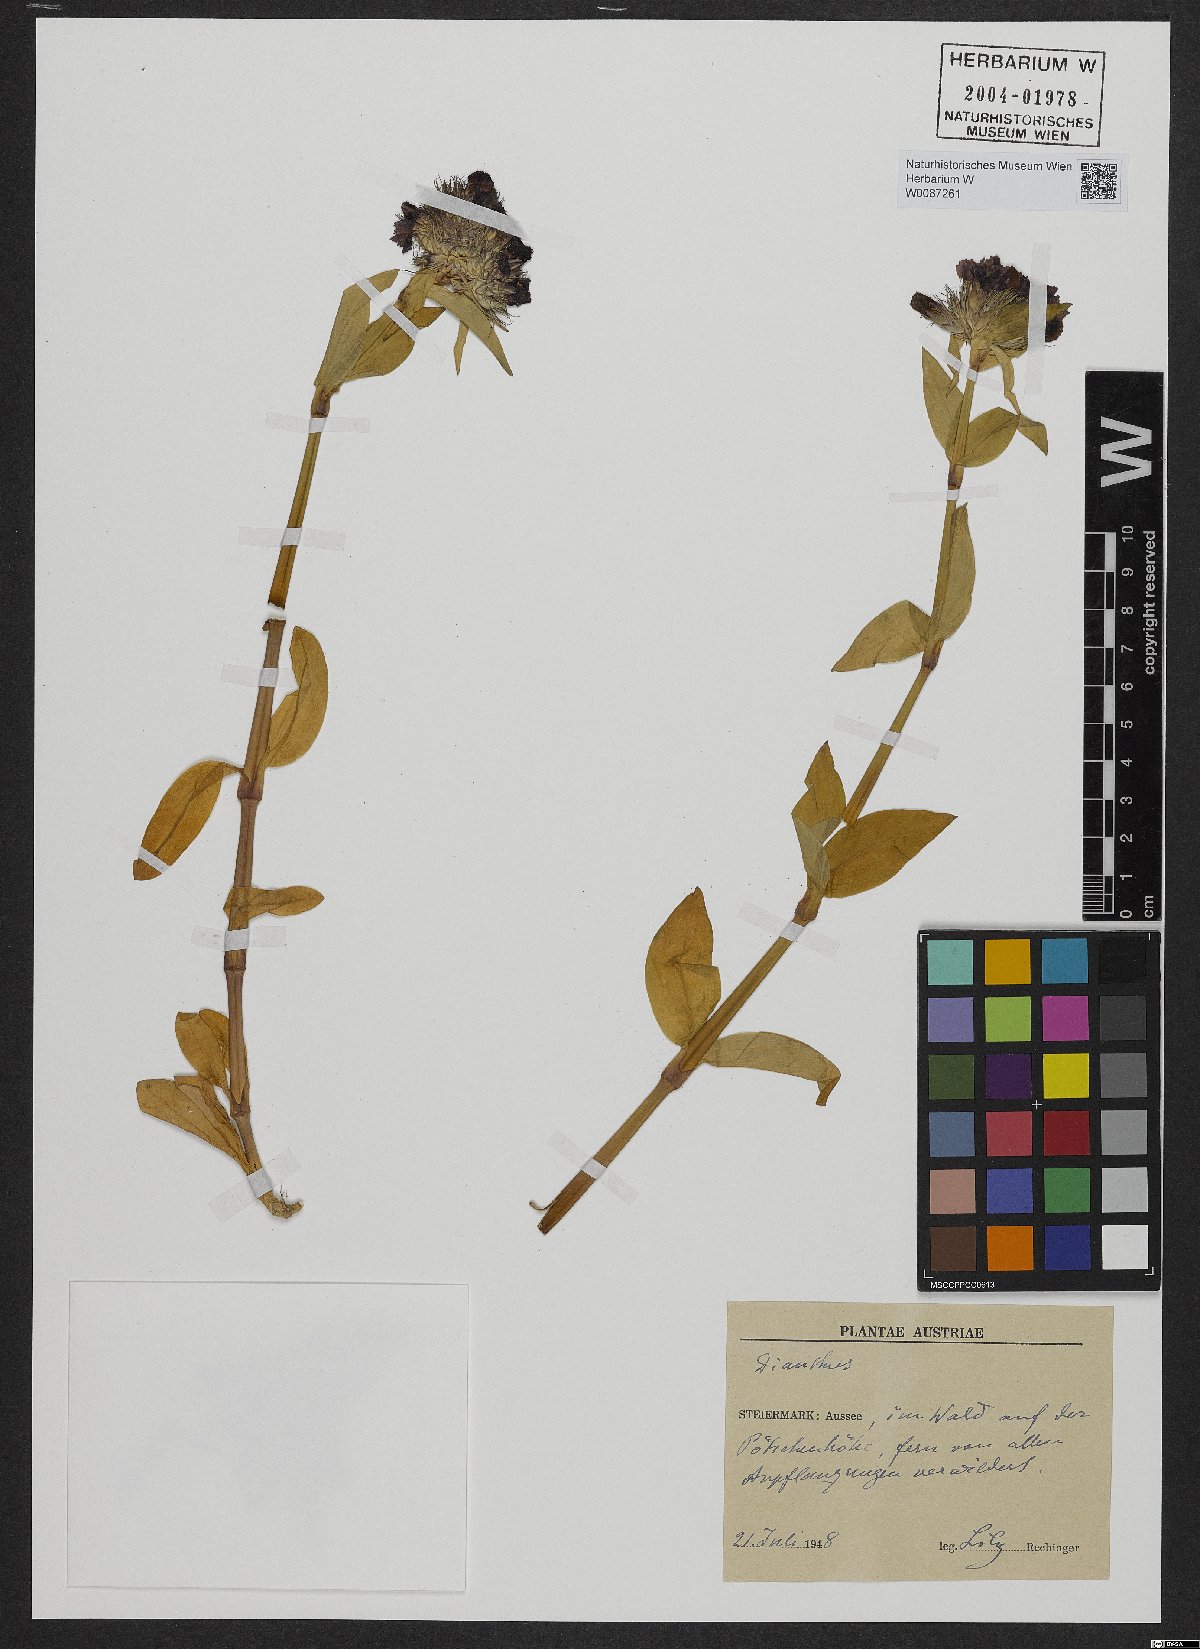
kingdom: Plantae
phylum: Tracheophyta
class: Magnoliopsida
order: Caryophyllales
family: Caryophyllaceae
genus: Dianthus
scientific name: Dianthus barbatus
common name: Sweet-william
